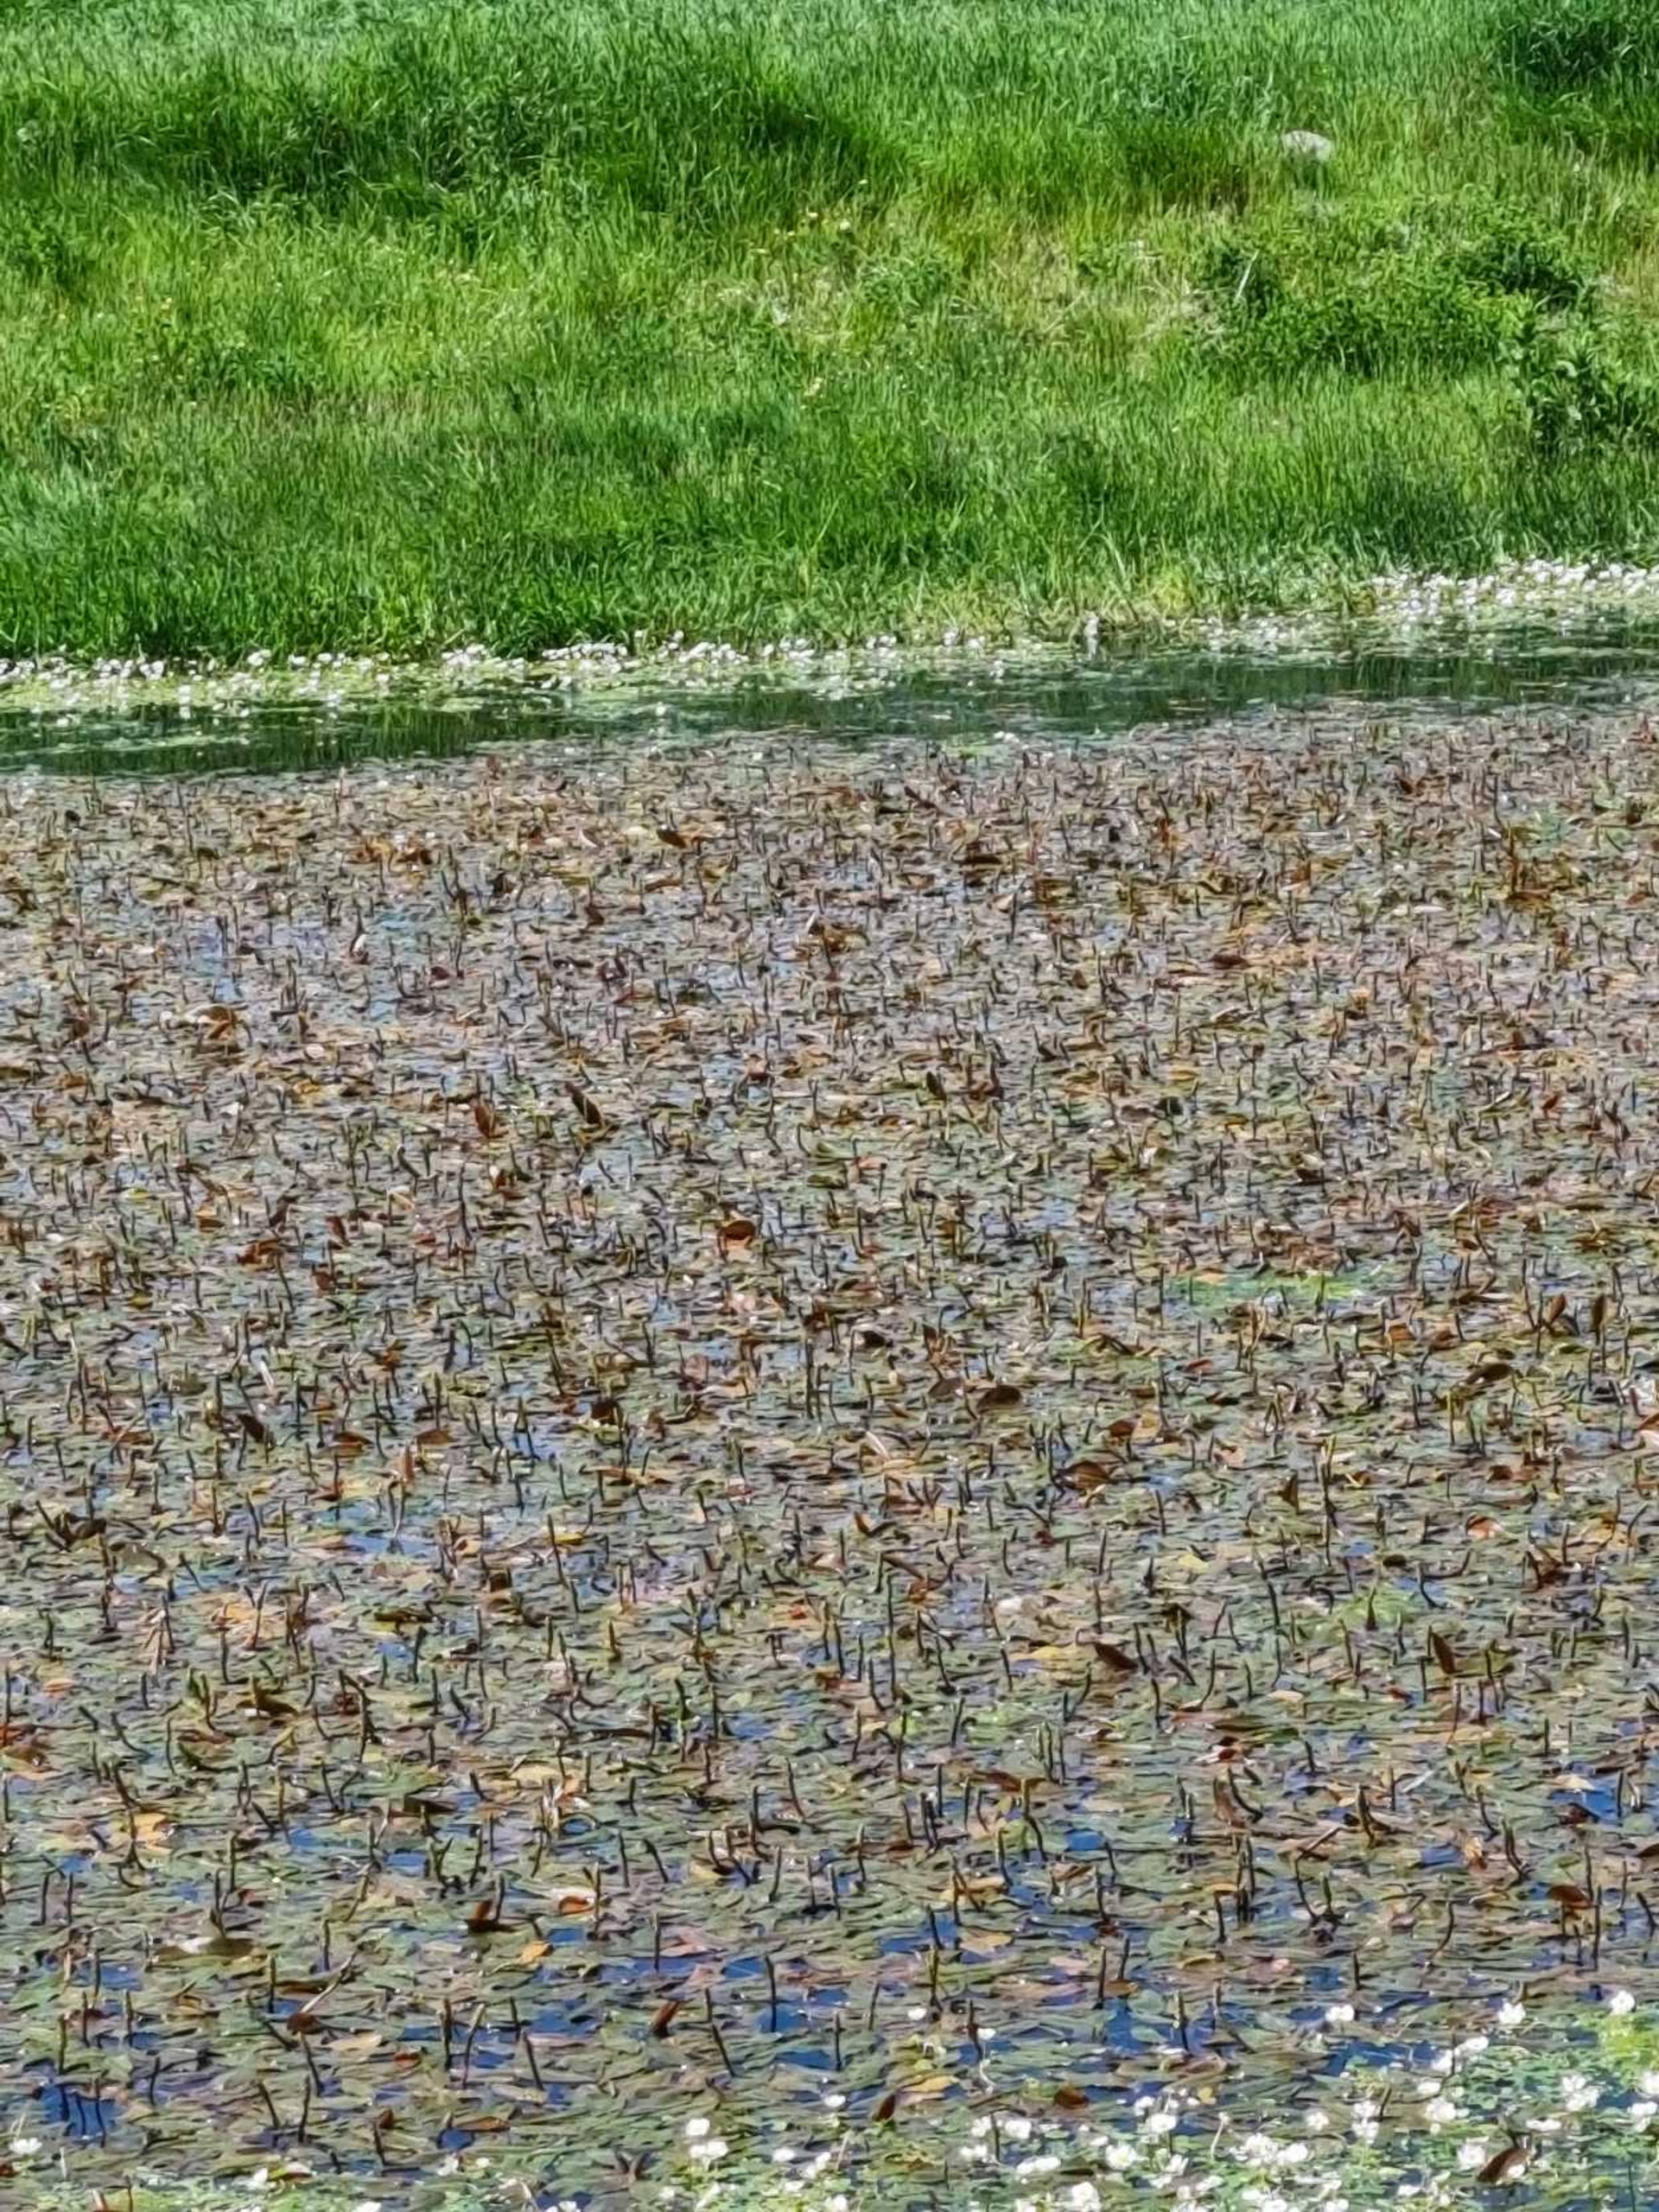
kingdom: Plantae
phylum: Tracheophyta
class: Liliopsida
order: Alismatales
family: Potamogetonaceae
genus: Potamogeton
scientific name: Potamogeton
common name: Vandaks (Potamogeton-slægten)
